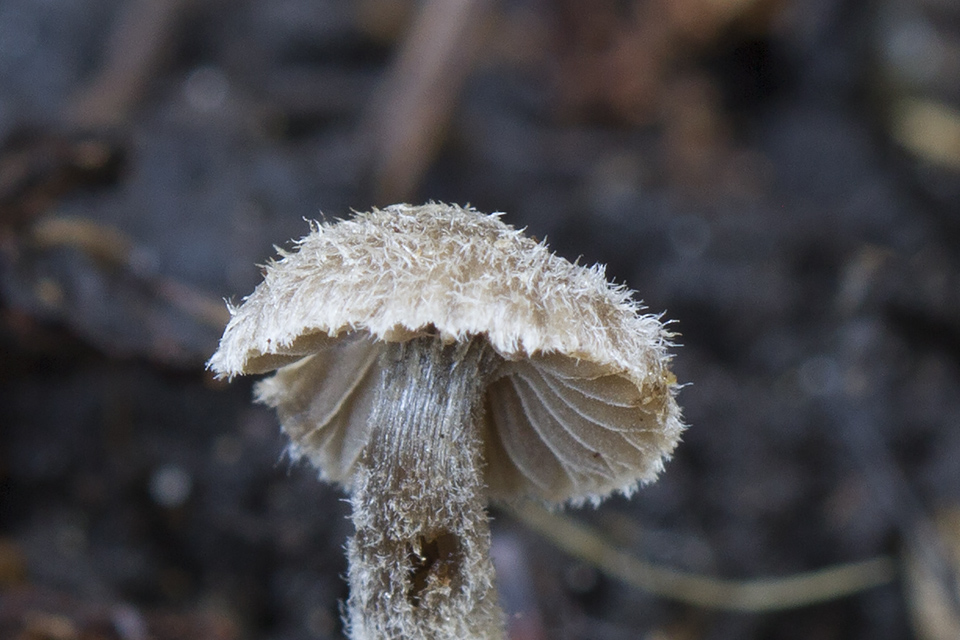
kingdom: Fungi
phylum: Basidiomycota
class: Agaricomycetes
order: Agaricales
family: Entolomataceae
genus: Entoloma
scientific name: Entoloma dysthales
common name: gråhåret rødblad
